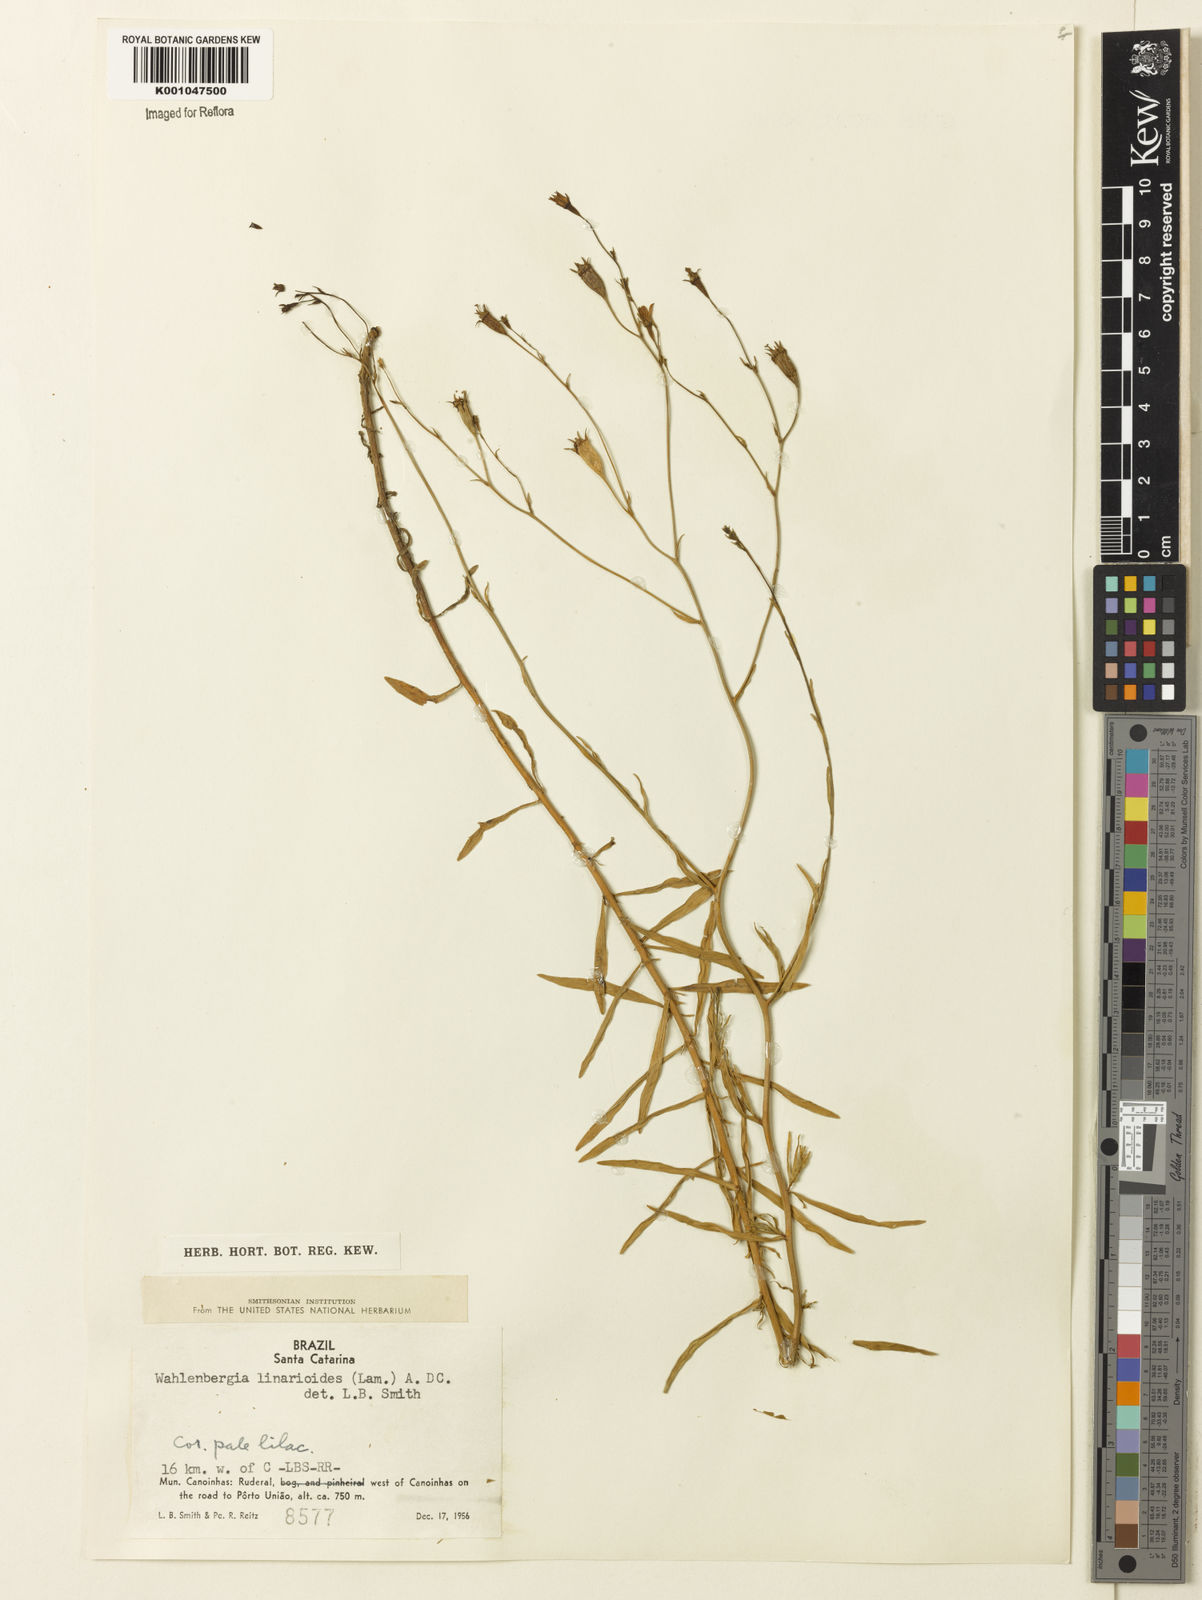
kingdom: Plantae
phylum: Tracheophyta
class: Magnoliopsida
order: Asterales
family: Campanulaceae
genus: Wahlenbergia
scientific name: Wahlenbergia linarioides
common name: Tuffybells
